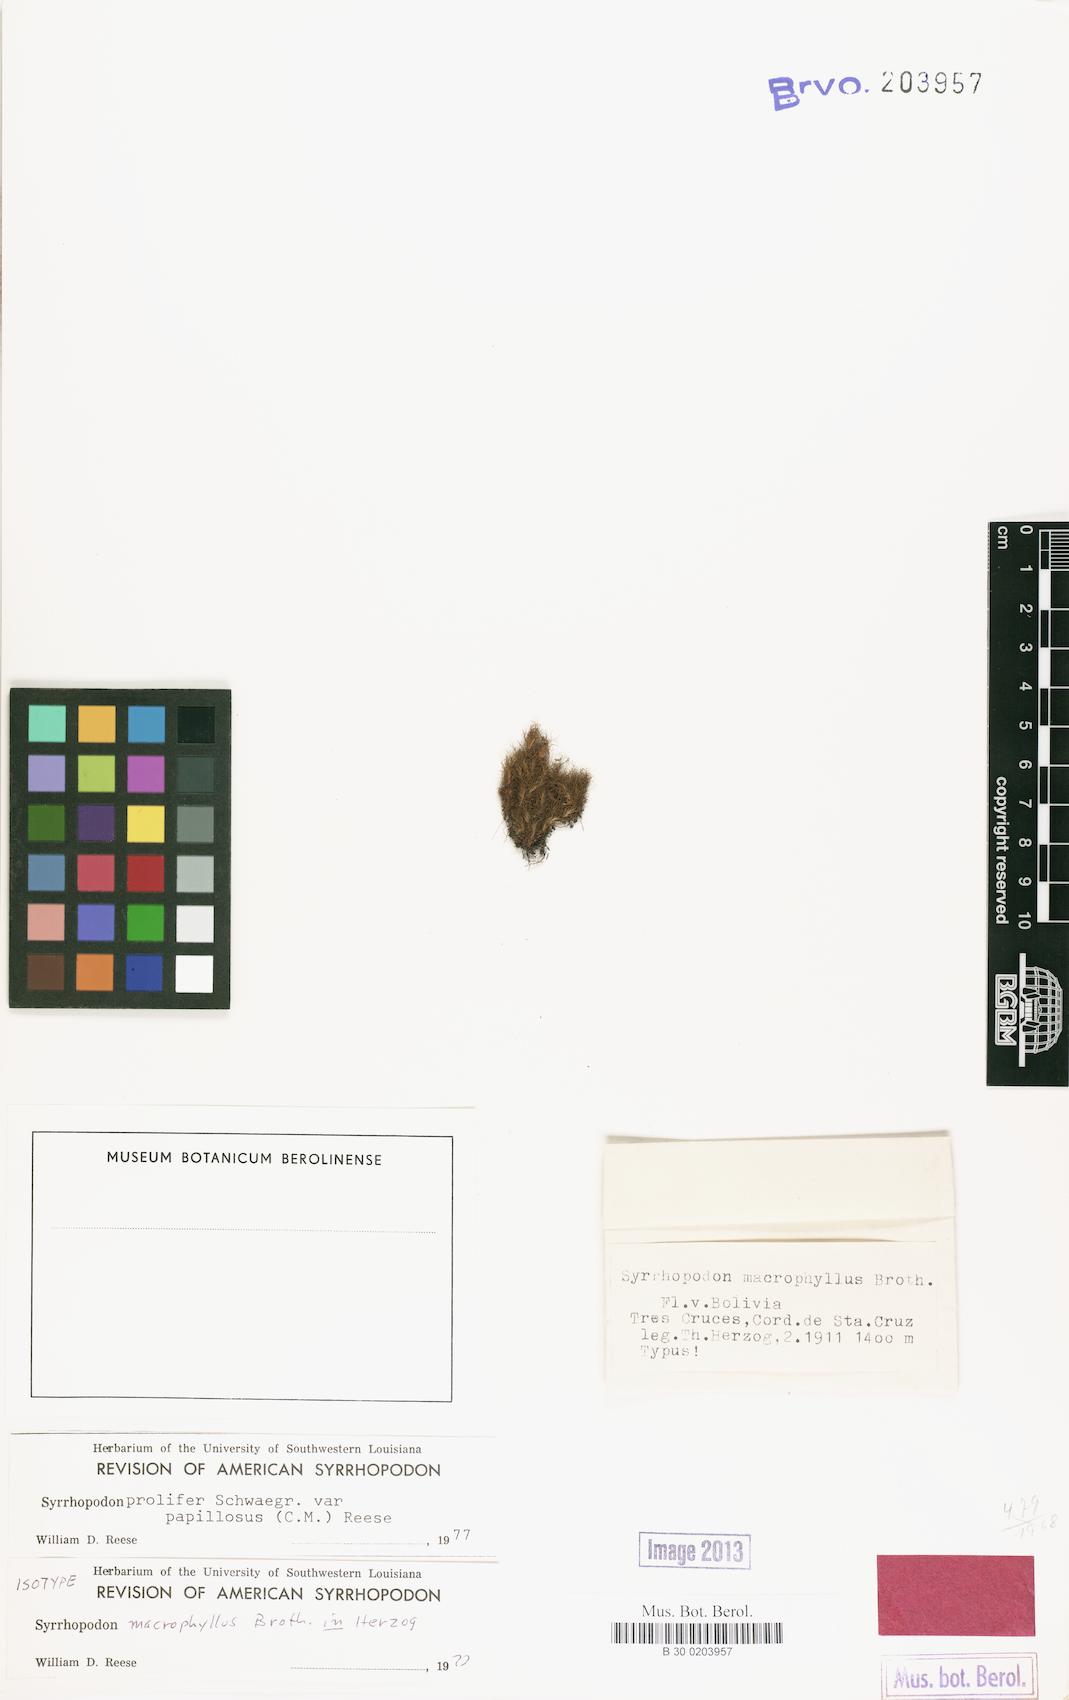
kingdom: Plantae
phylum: Bryophyta
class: Bryopsida
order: Dicranales
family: Calymperaceae
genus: Syrrhopodon
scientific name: Syrrhopodon prolifer
